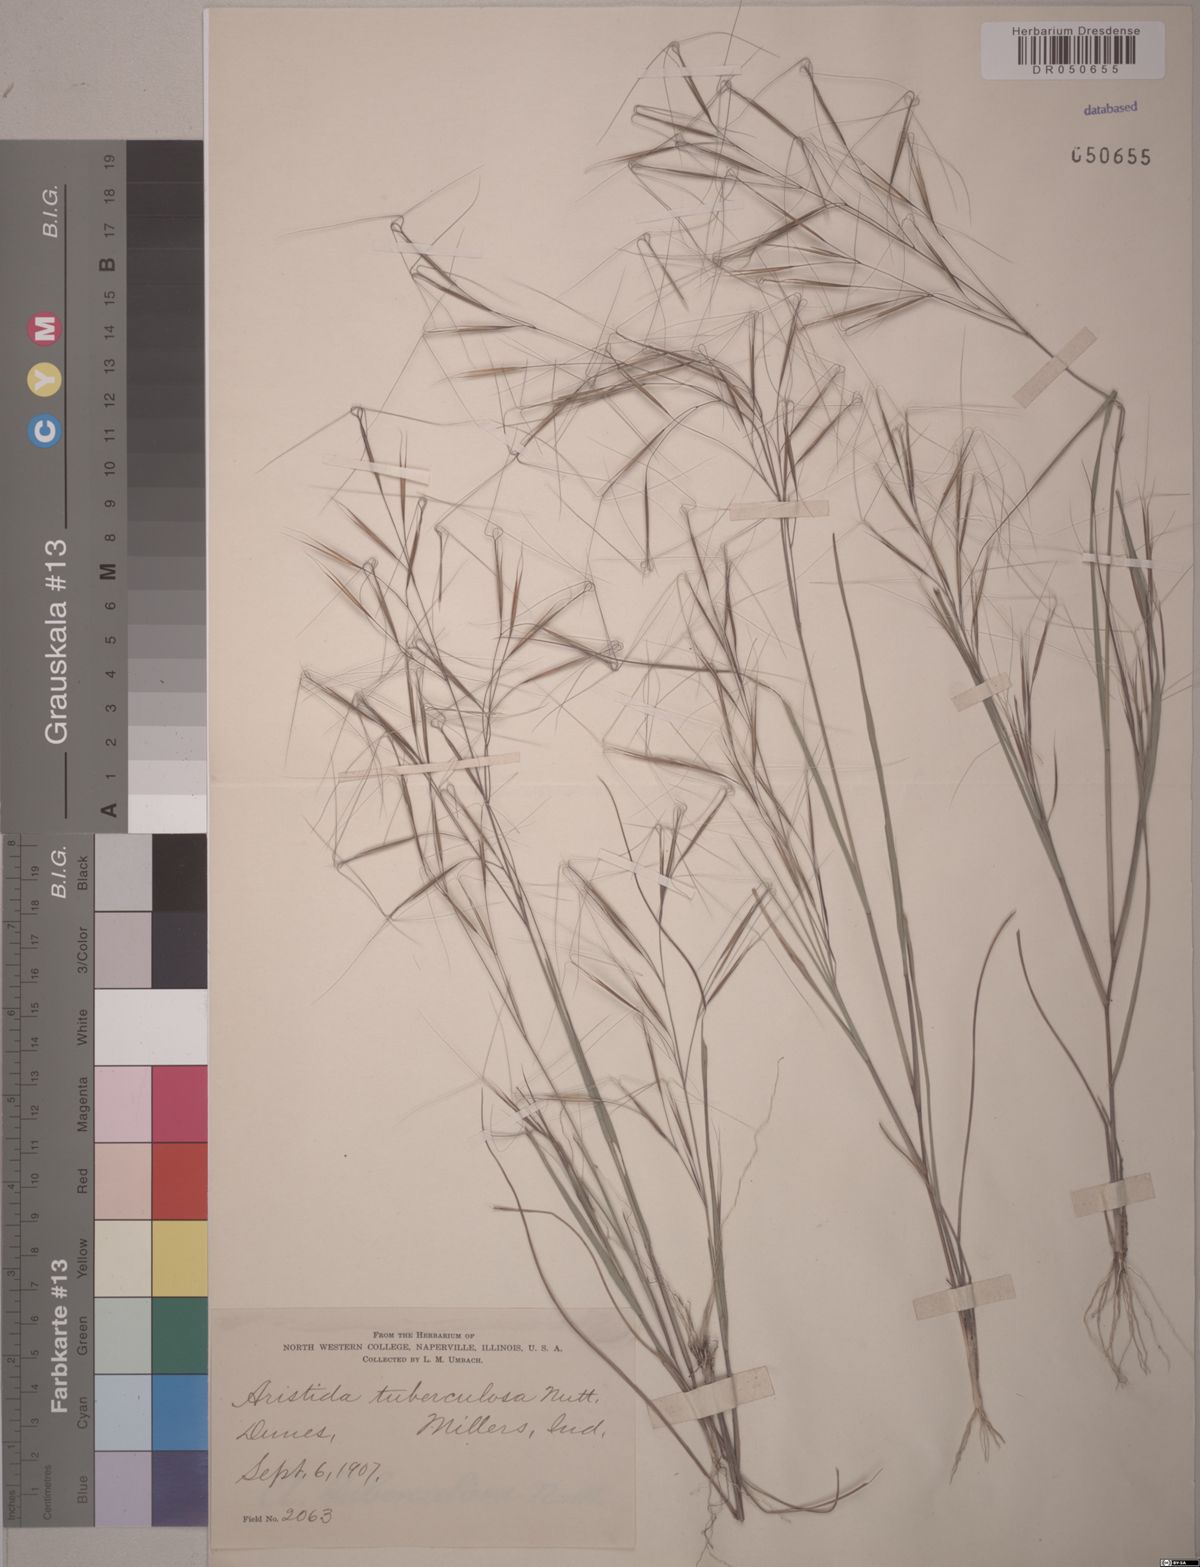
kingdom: Plantae
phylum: Tracheophyta
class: Liliopsida
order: Poales
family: Poaceae
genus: Aristida
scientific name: Aristida tuberculosa
